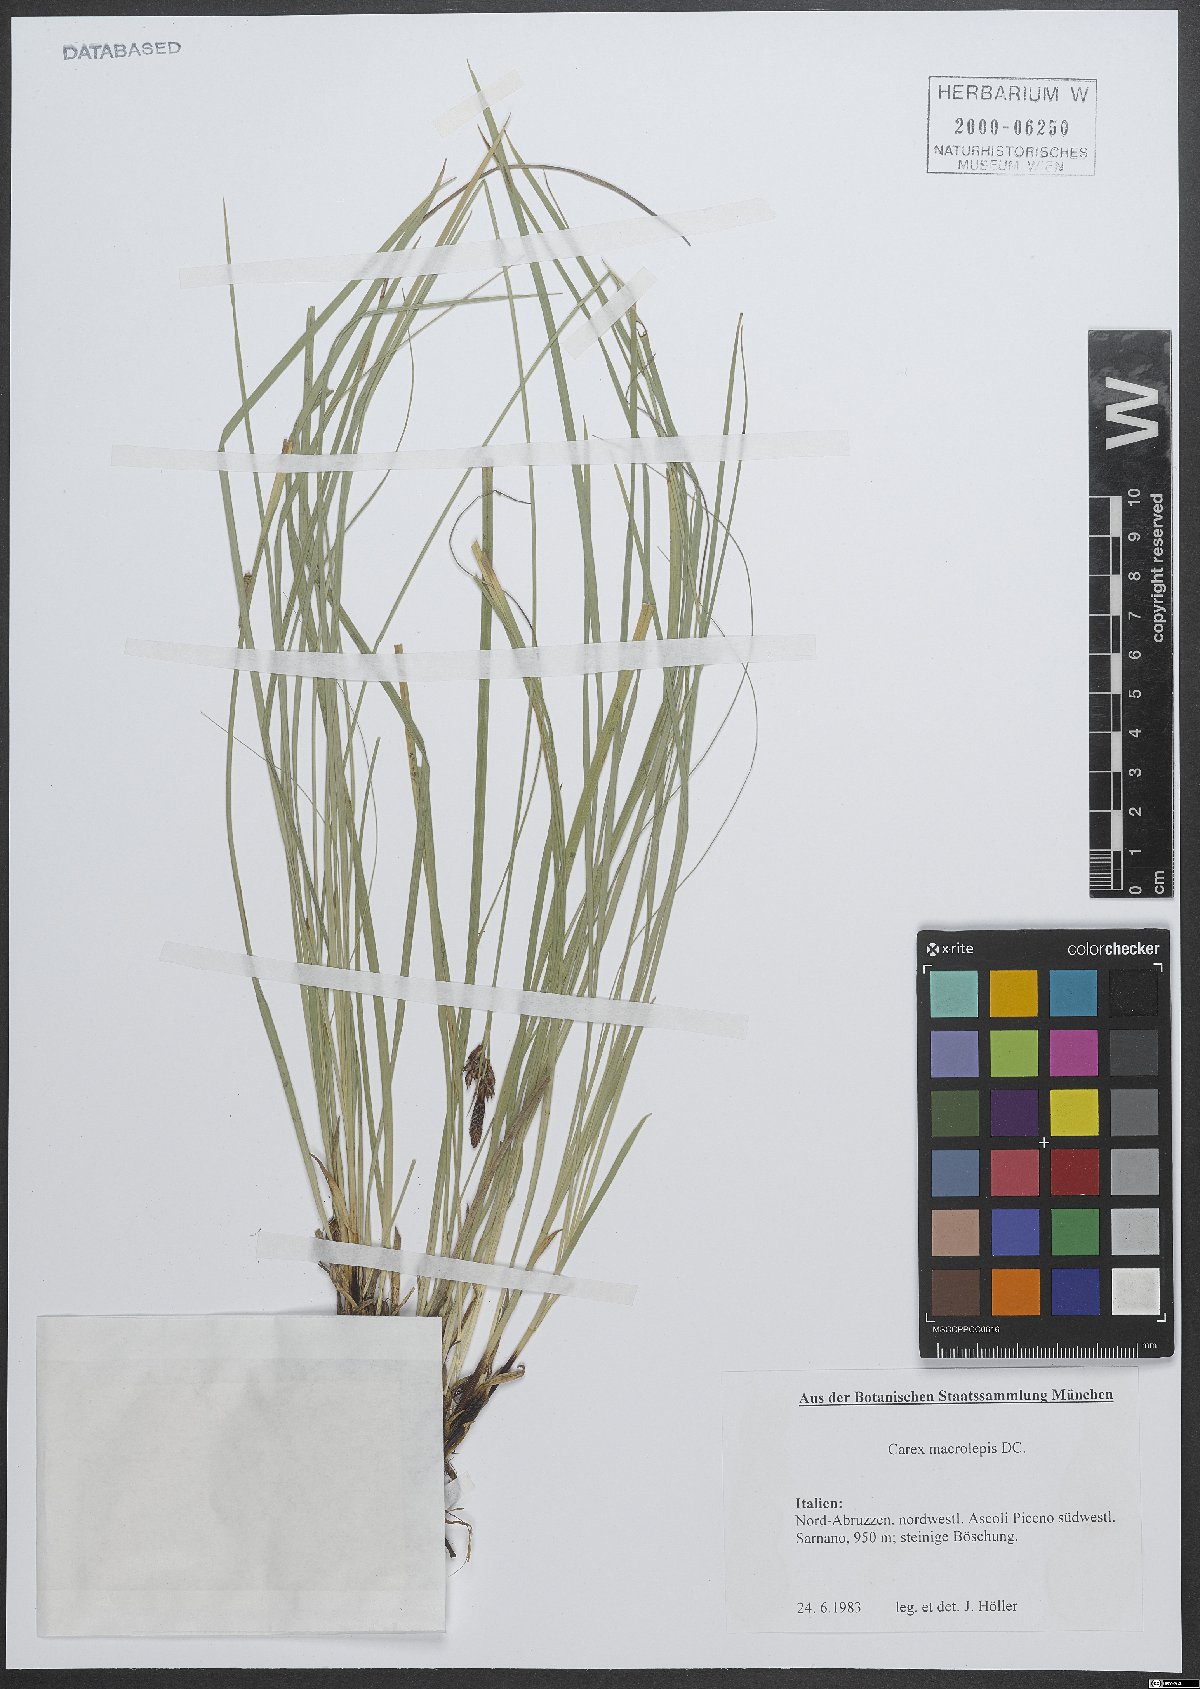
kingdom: Plantae
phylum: Tracheophyta
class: Liliopsida
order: Poales
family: Cyperaceae
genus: Carex
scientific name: Carex macrolepis
